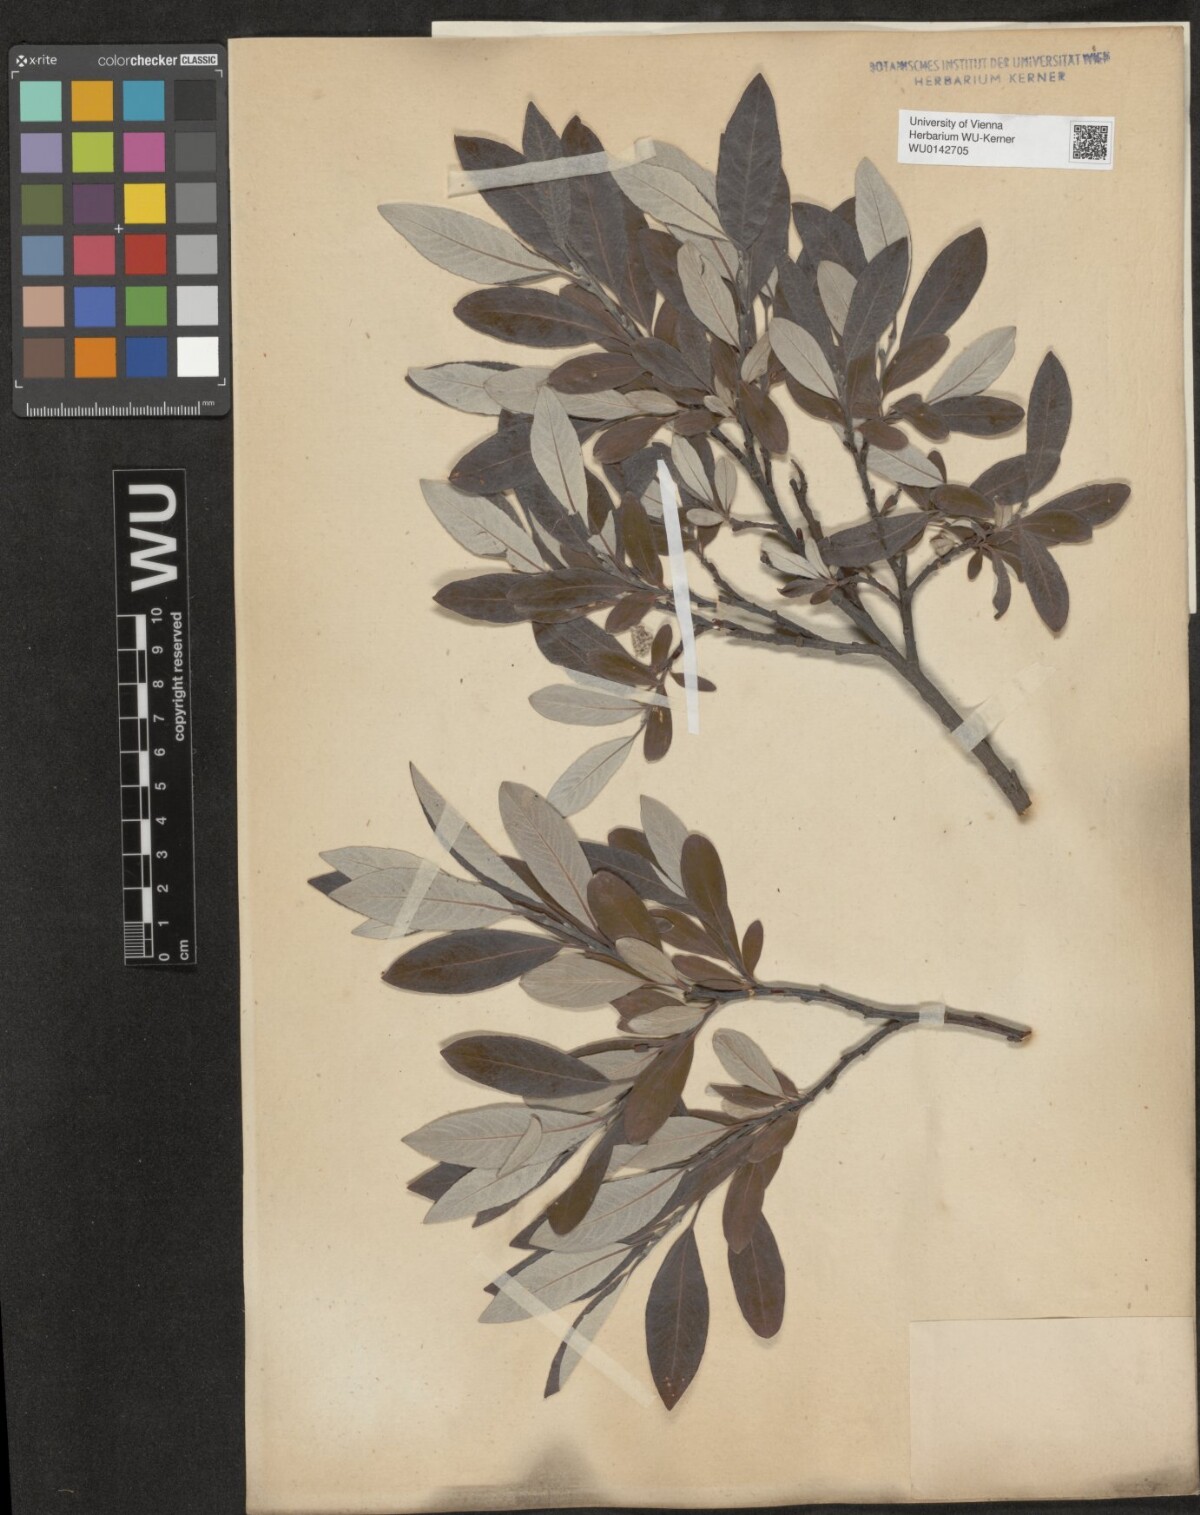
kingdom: Plantae
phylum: Tracheophyta
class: Magnoliopsida
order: Malpighiales
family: Salicaceae
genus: Salix
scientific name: Salix helvetica
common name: Swiss willow
